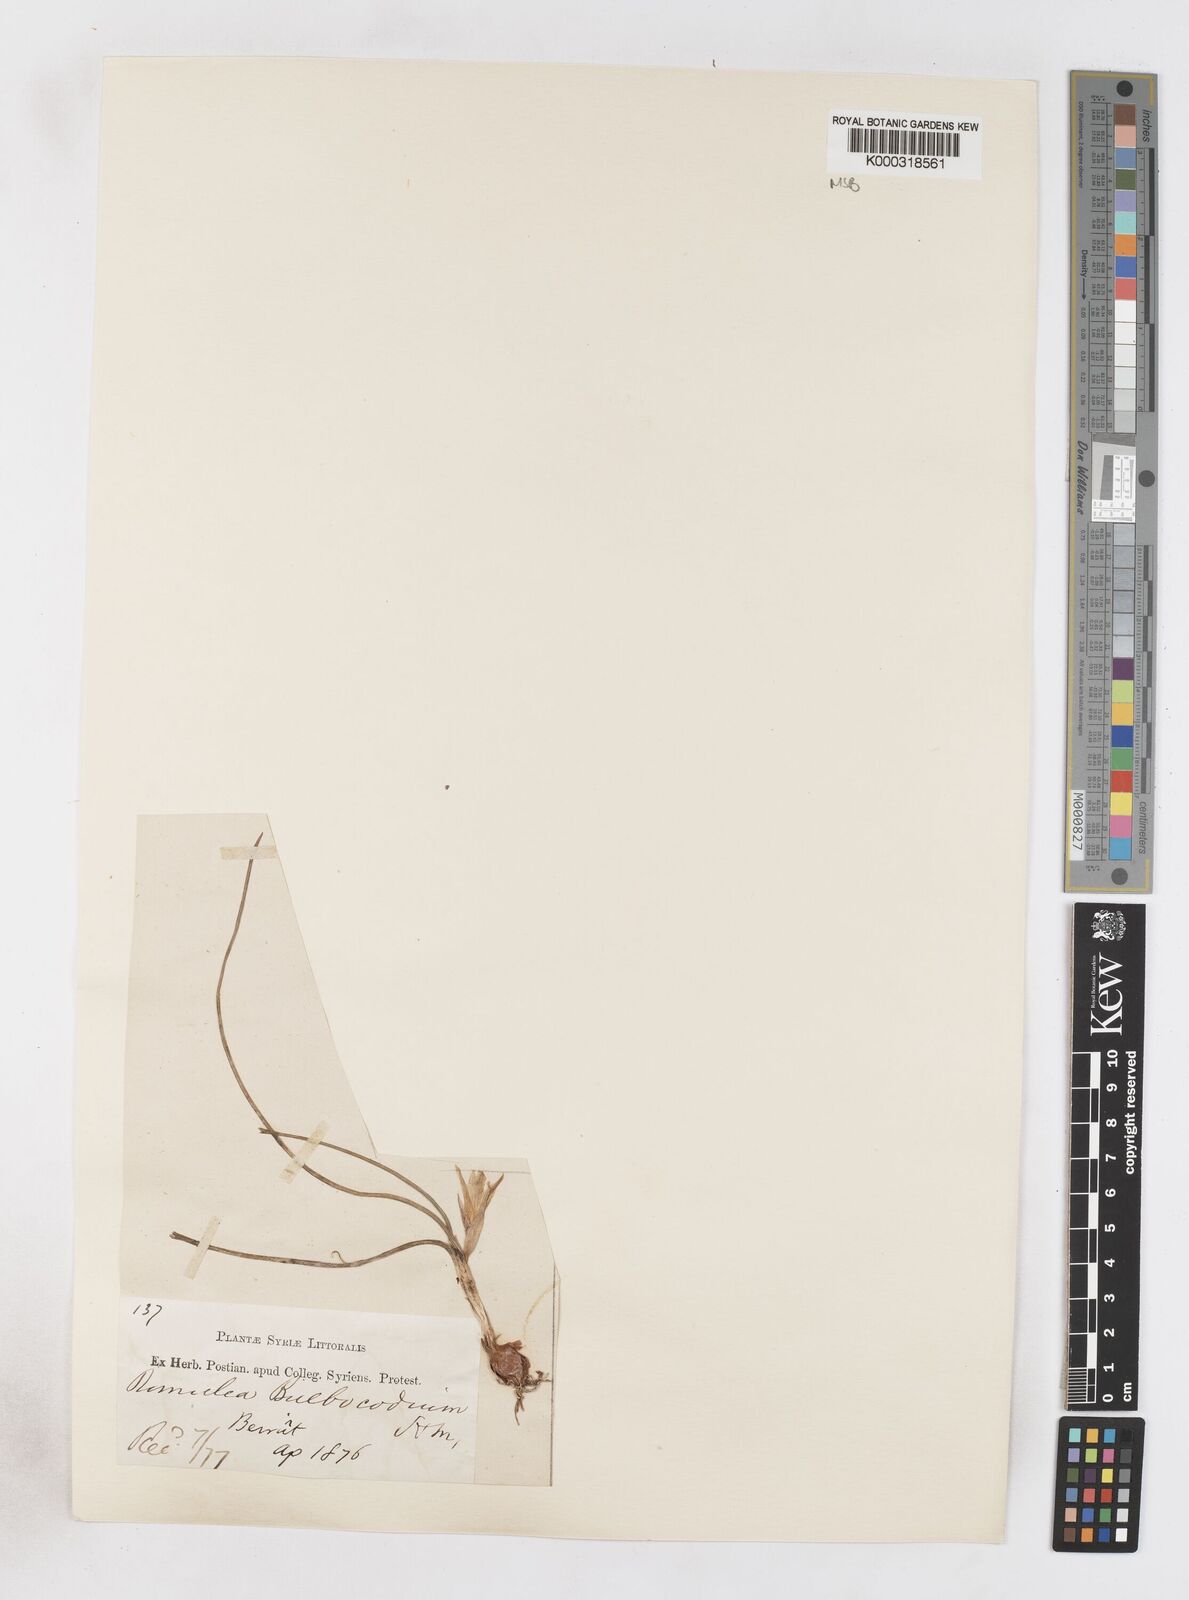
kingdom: Plantae
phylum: Tracheophyta
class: Liliopsida
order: Asparagales
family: Iridaceae
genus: Romulea
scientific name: Romulea bulbocodium
